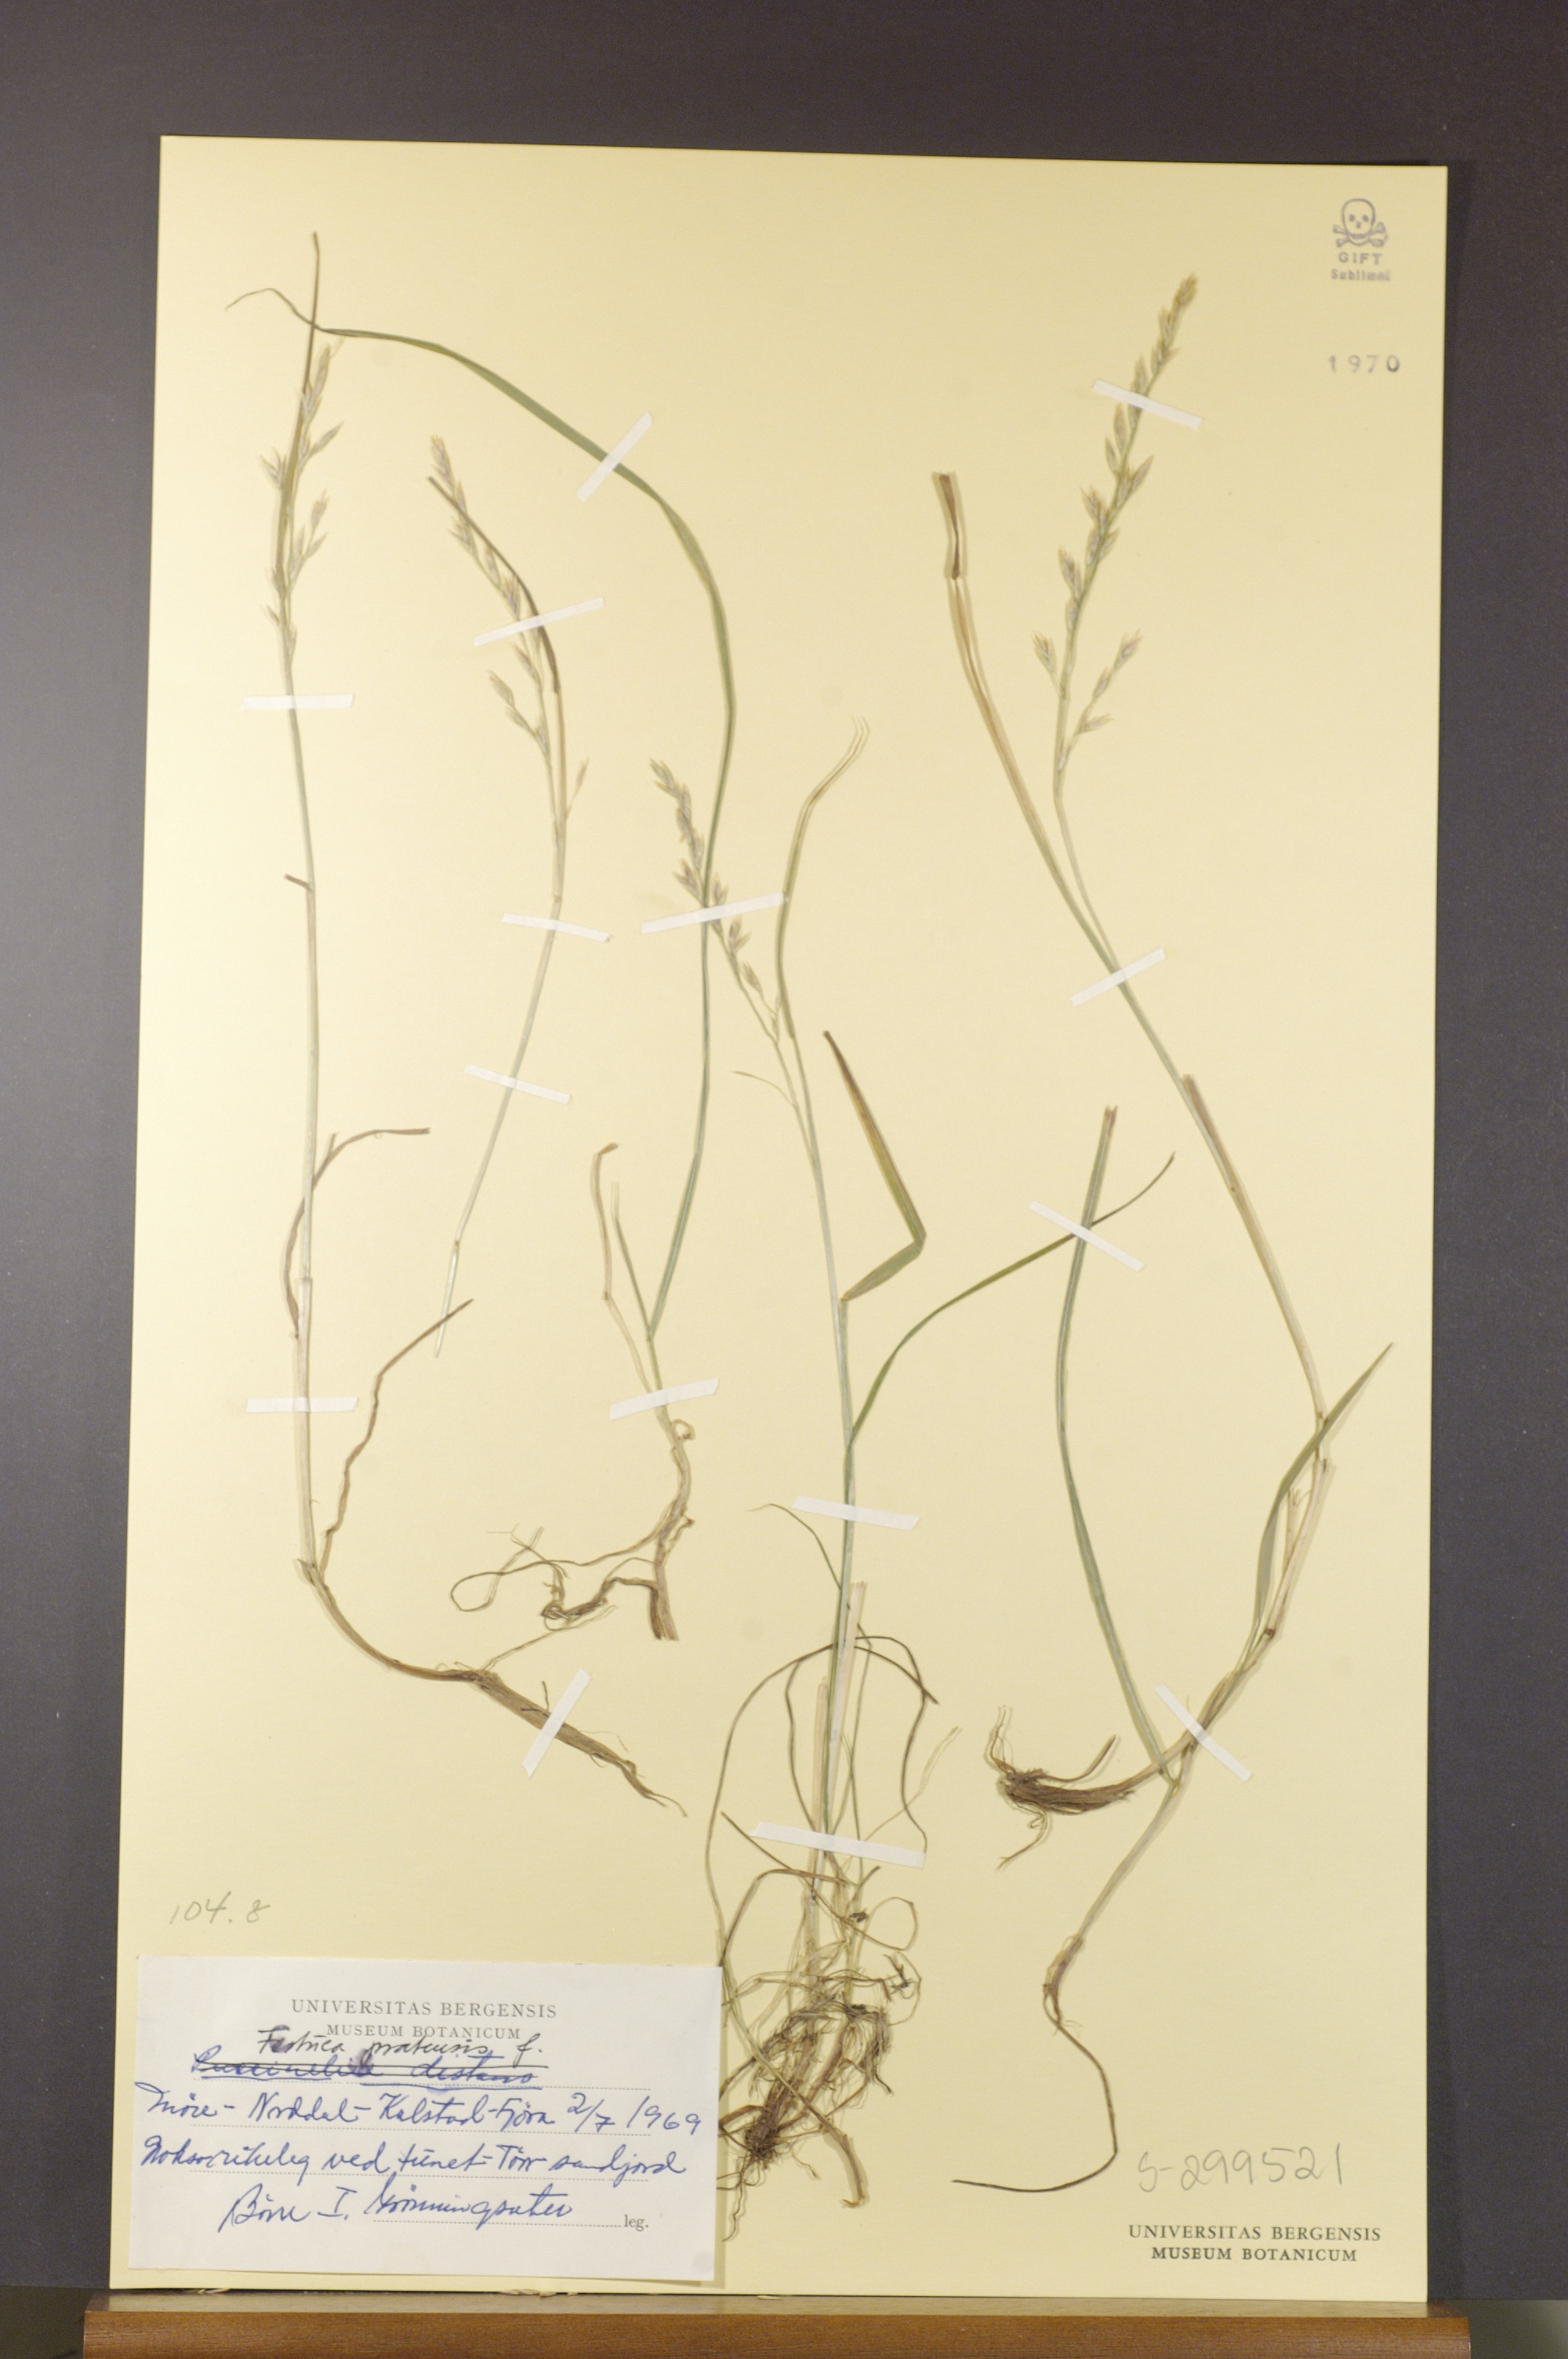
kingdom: Plantae
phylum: Tracheophyta
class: Liliopsida
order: Poales
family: Poaceae
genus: Lolium
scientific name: Lolium pratense
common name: Dover grass
